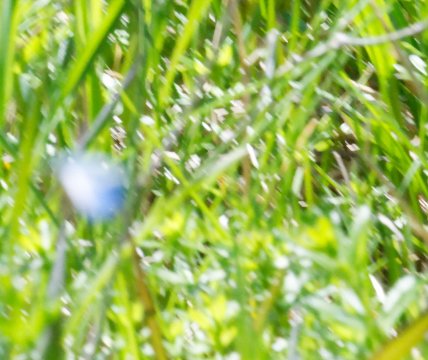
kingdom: Animalia
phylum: Arthropoda
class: Insecta
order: Lepidoptera
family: Lycaenidae
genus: Celastrina
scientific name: Celastrina
